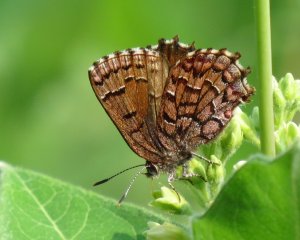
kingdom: Animalia
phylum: Arthropoda
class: Insecta
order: Lepidoptera
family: Lycaenidae
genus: Incisalia
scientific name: Incisalia niphon
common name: Eastern Pine Elfin
